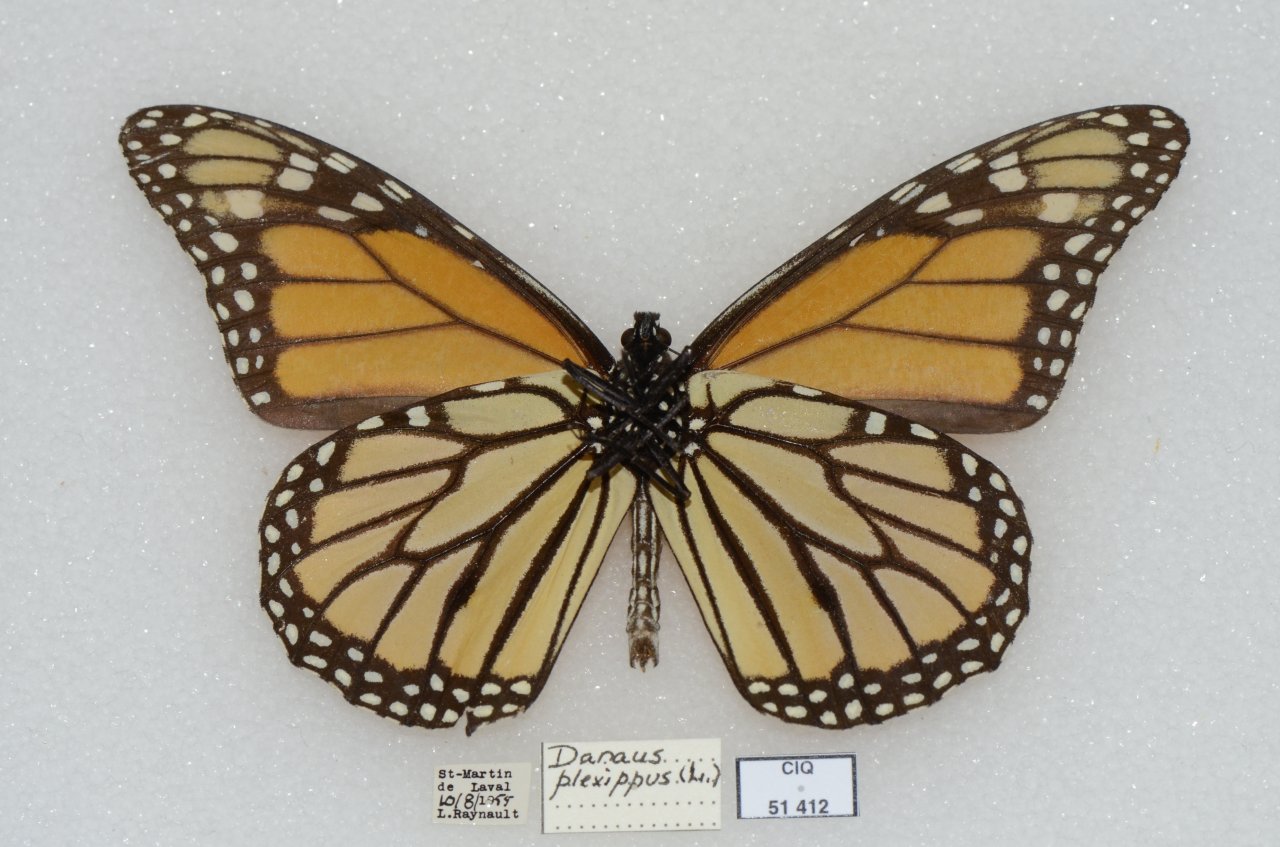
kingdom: Animalia
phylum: Arthropoda
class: Insecta
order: Lepidoptera
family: Nymphalidae
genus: Danaus
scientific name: Danaus plexippus
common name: Monarch
